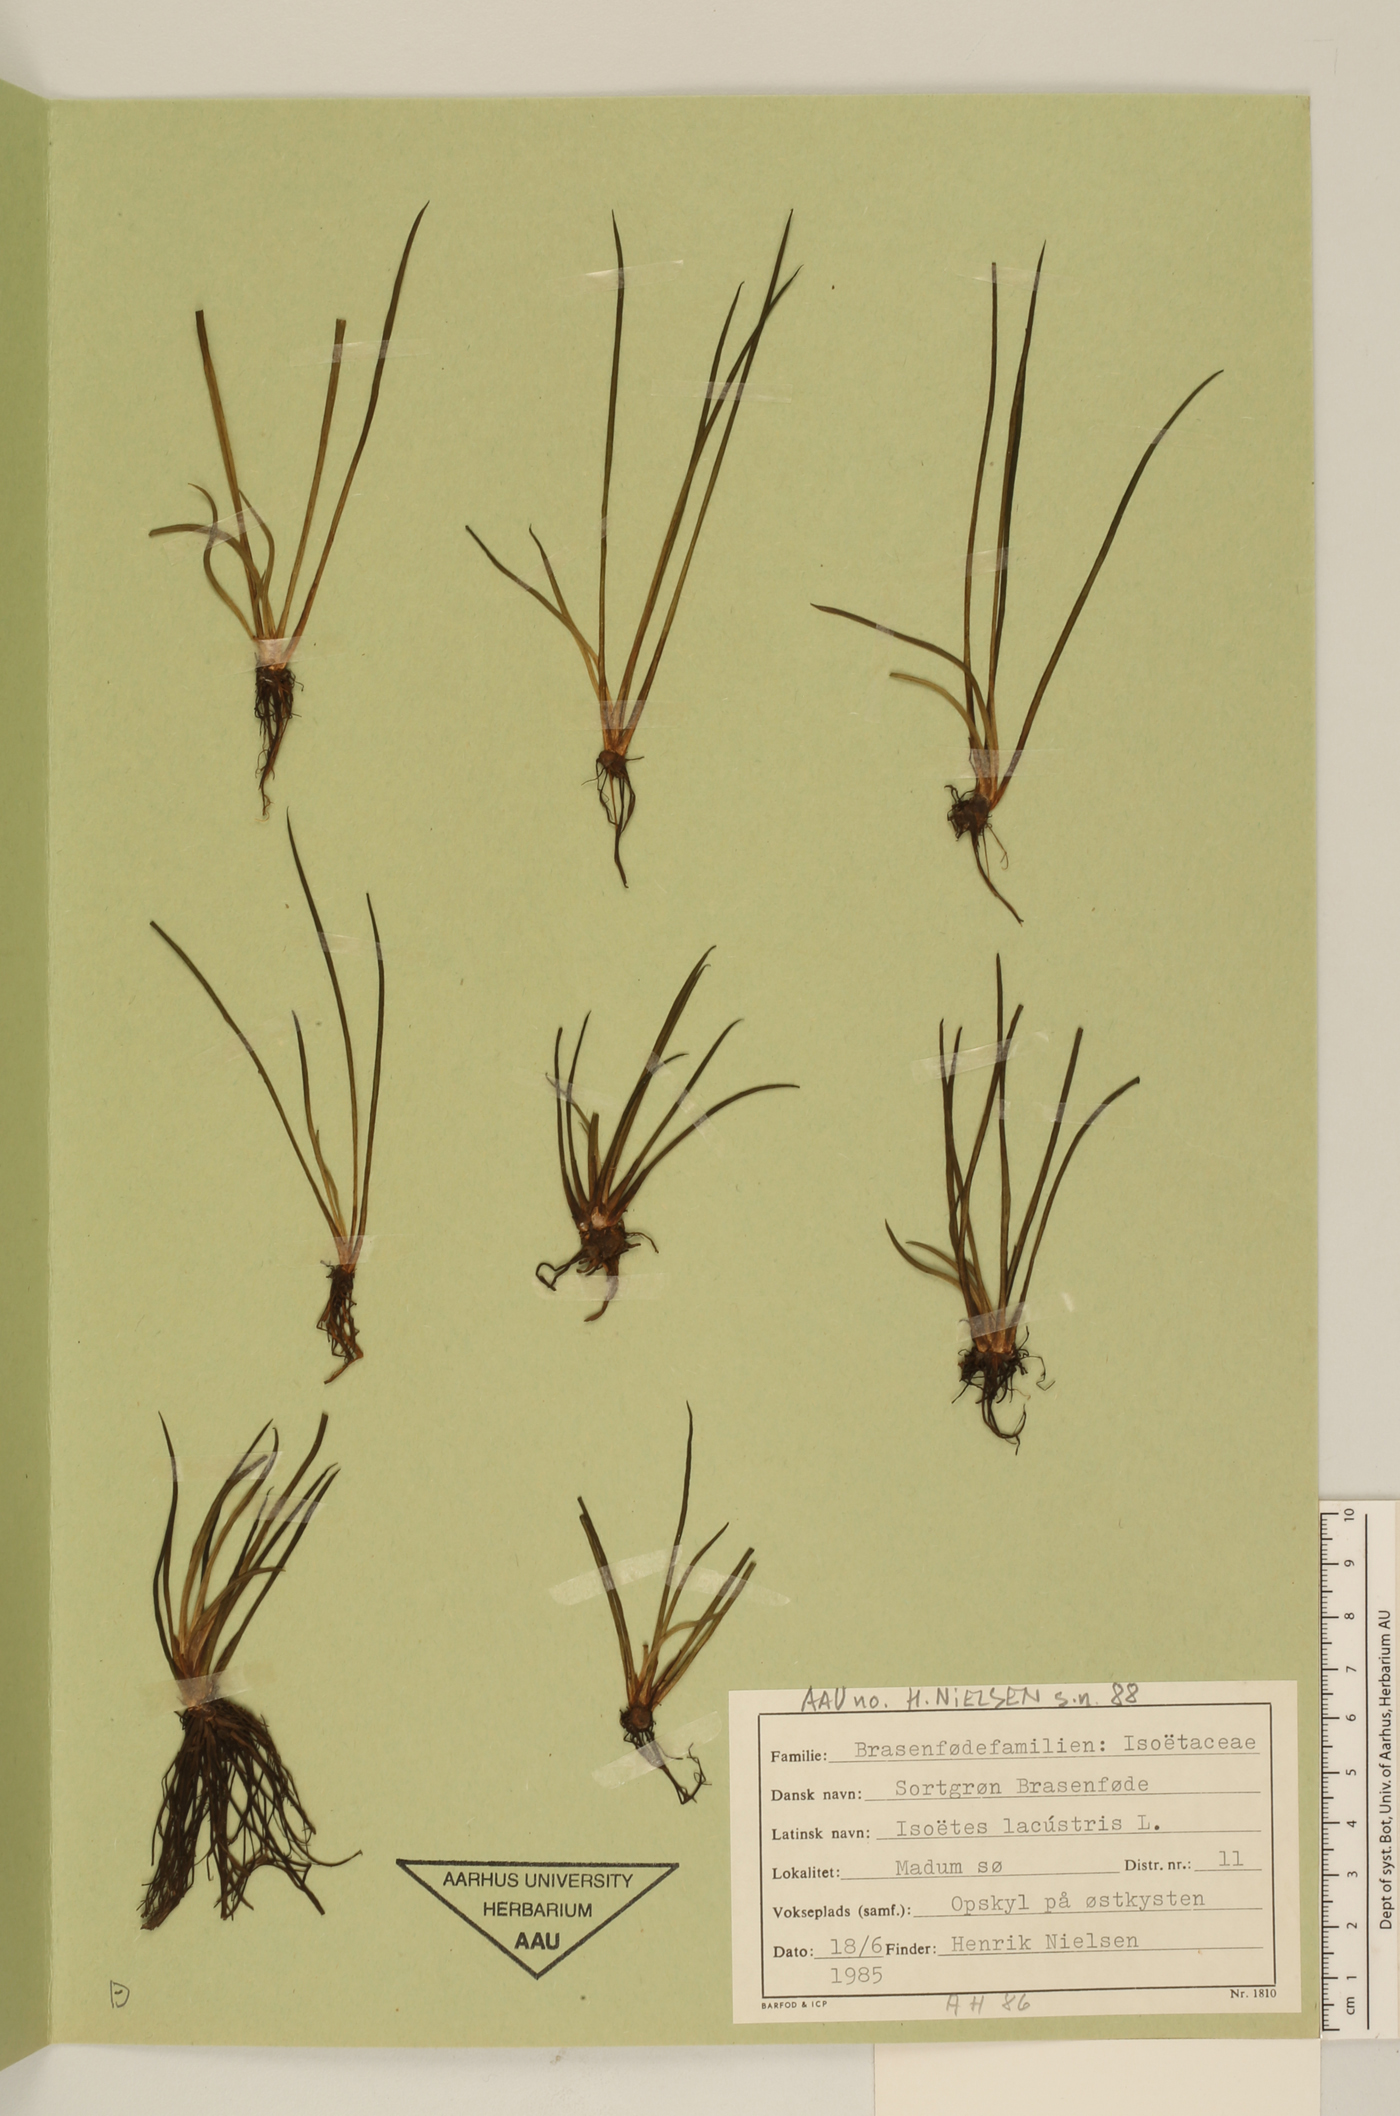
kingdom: Plantae
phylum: Tracheophyta
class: Lycopodiopsida
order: Isoetales
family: Isoetaceae
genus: Isoetes
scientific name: Isoetes lacustris
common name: Common quillwort
